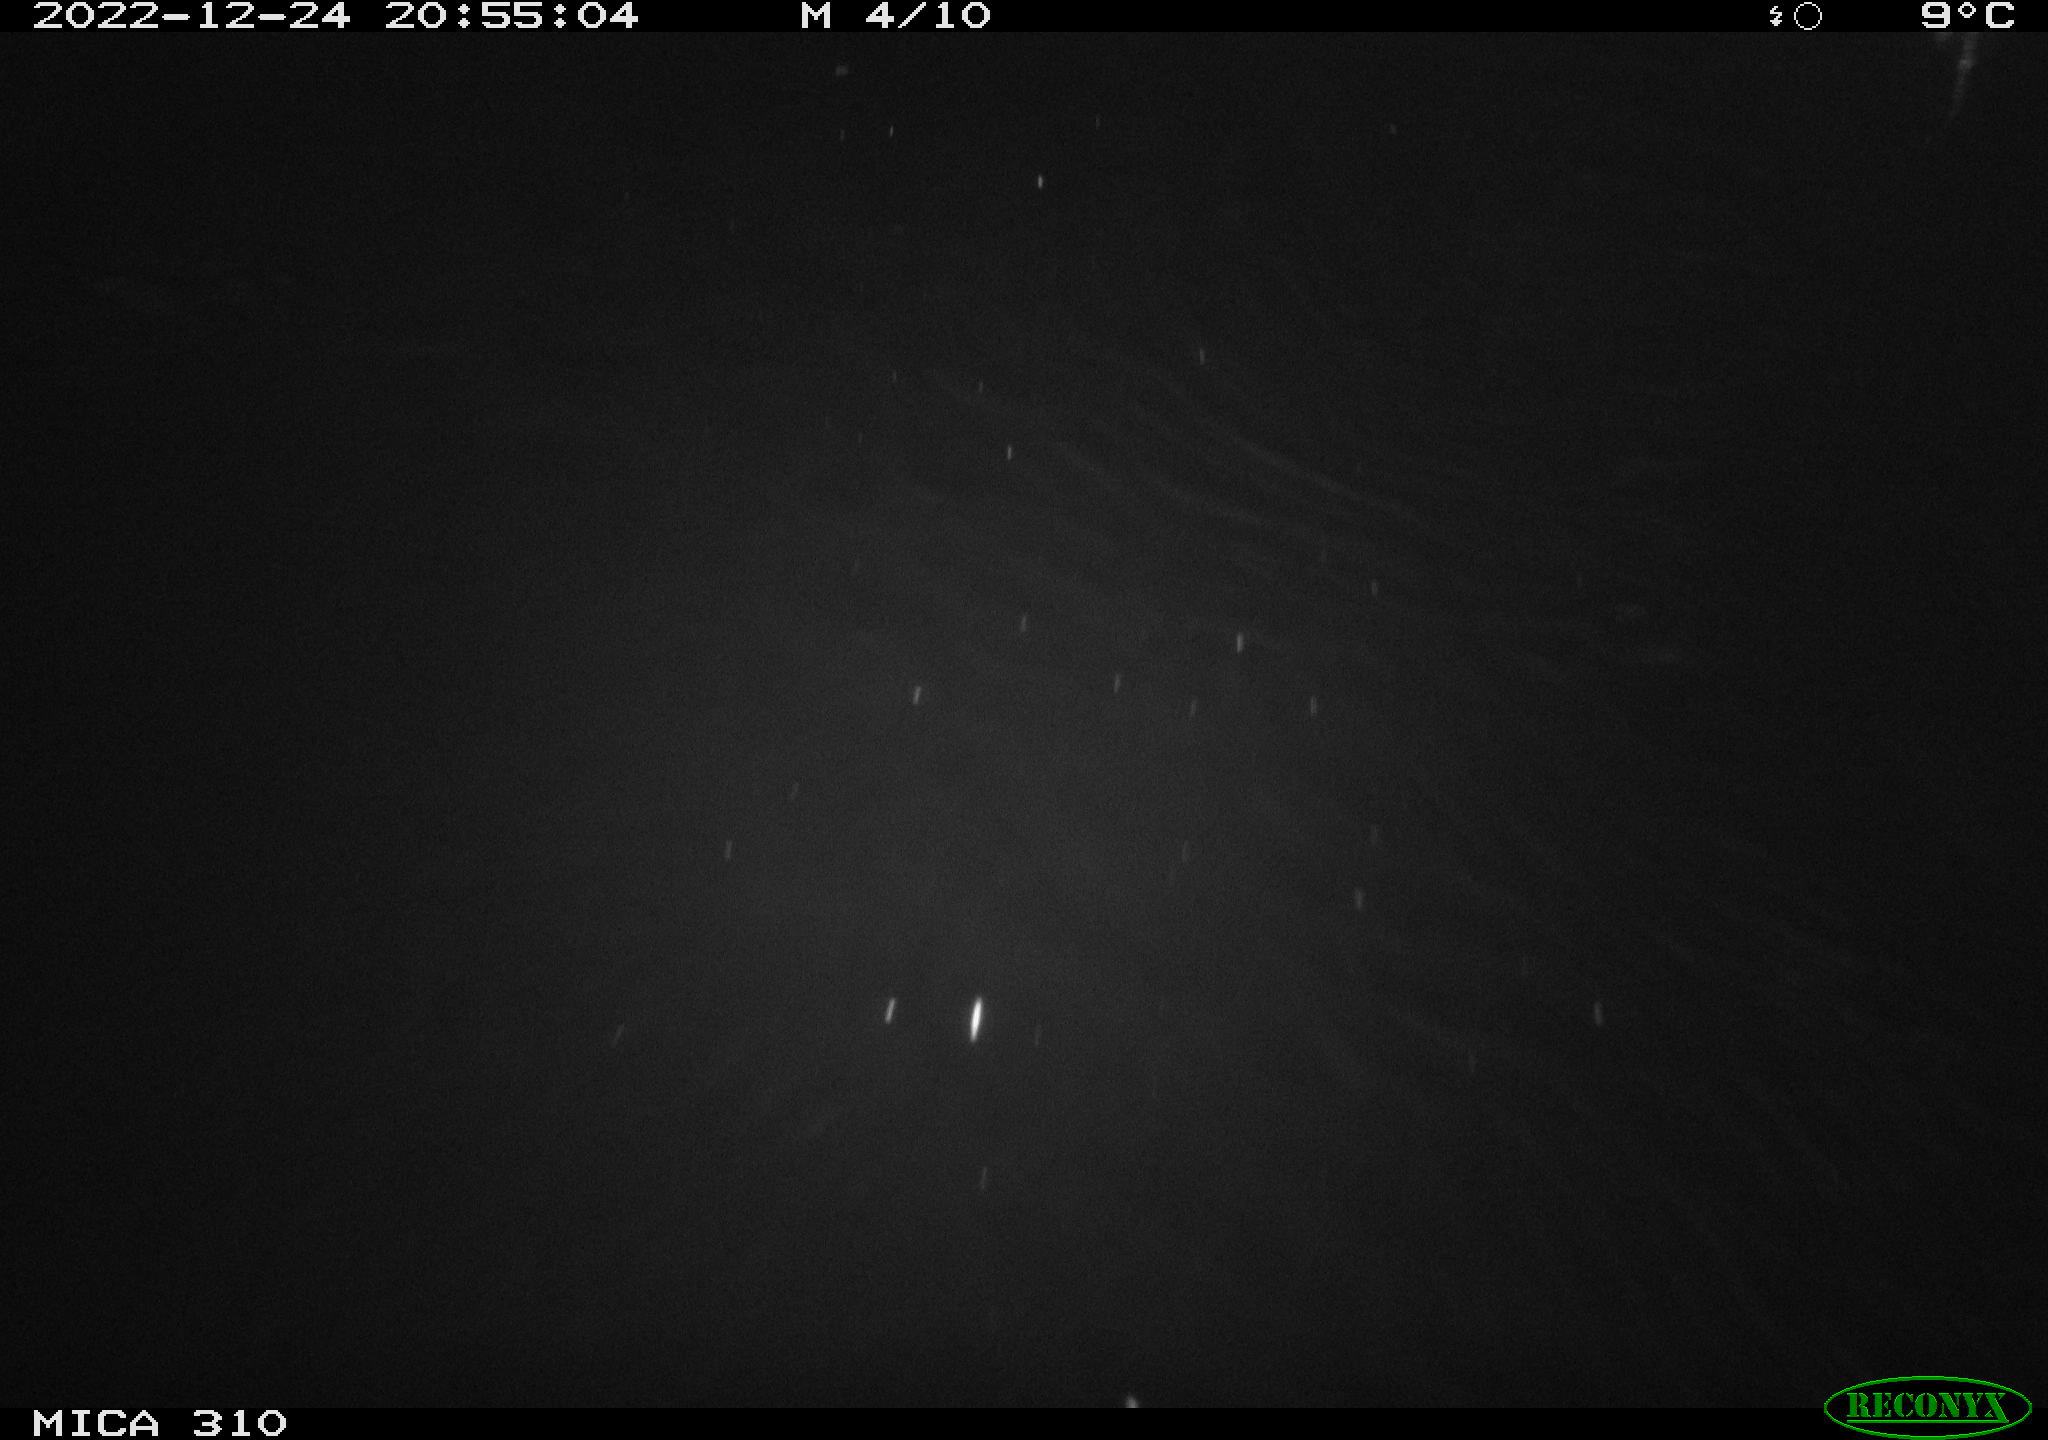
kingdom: Animalia
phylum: Chordata
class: Mammalia
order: Rodentia
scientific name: Rodentia
